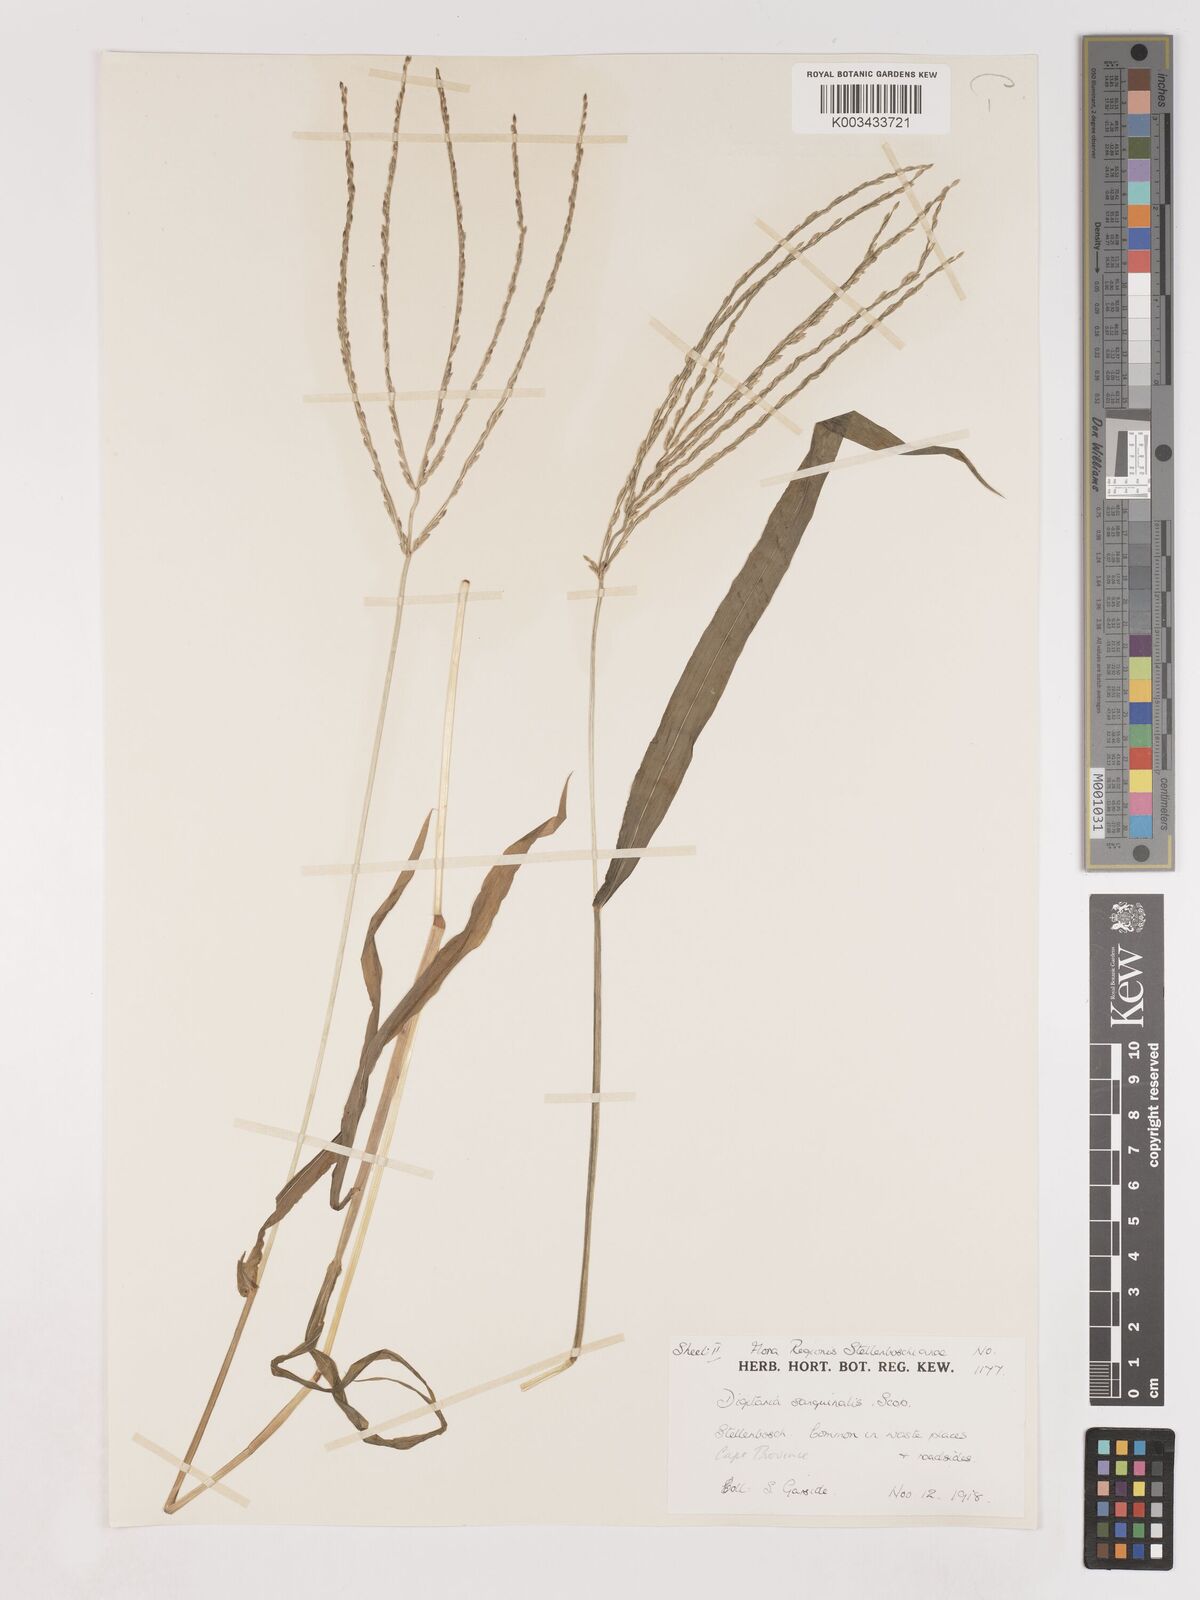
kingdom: Plantae
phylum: Tracheophyta
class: Liliopsida
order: Poales
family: Poaceae
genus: Digitaria
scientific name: Digitaria sanguinalis
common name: Hairy crabgrass
